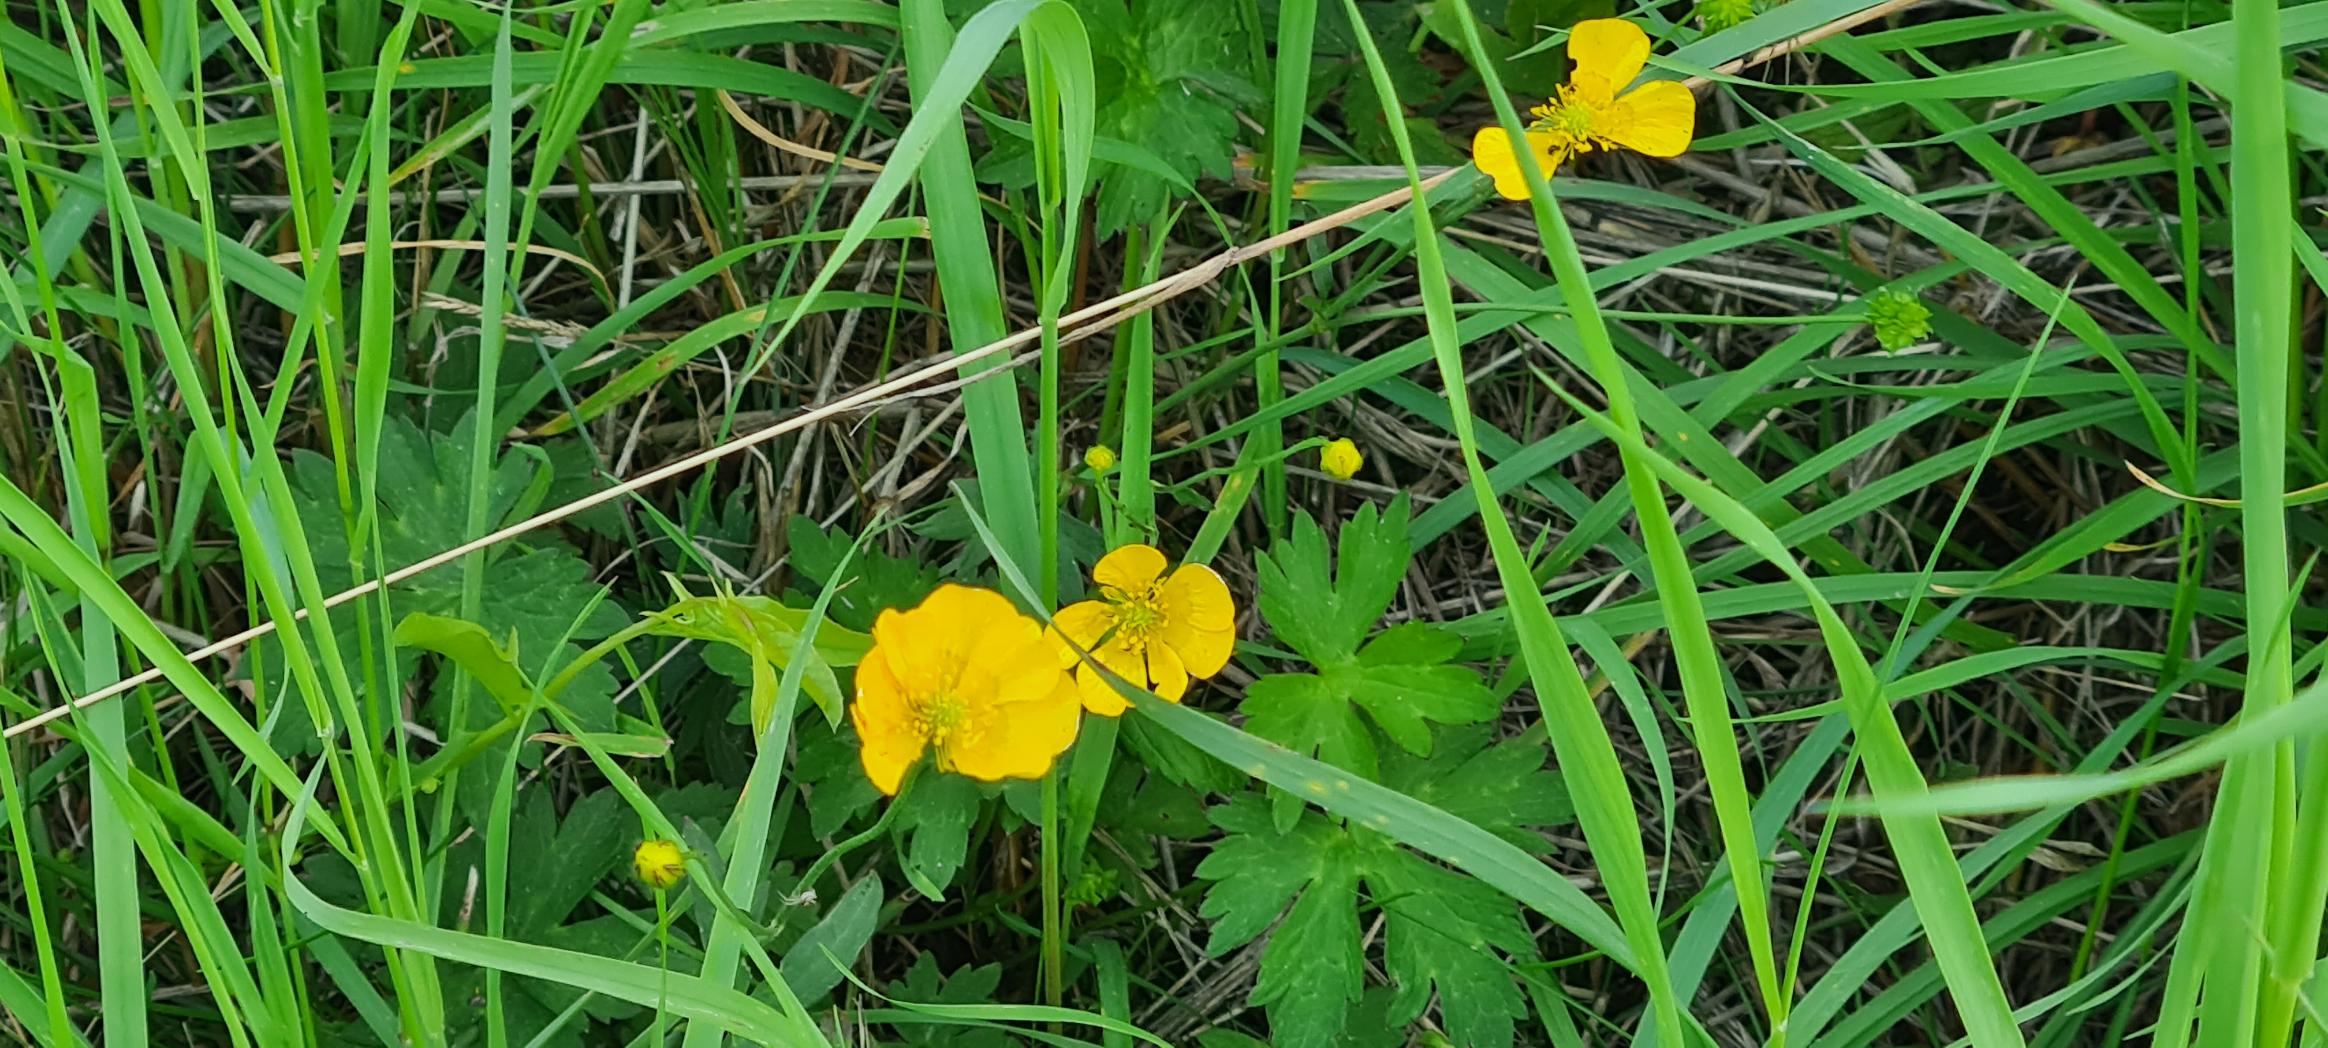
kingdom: Plantae
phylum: Tracheophyta
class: Magnoliopsida
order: Ranunculales
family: Ranunculaceae
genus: Ranunculus
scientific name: Ranunculus acris
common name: Bidende ranunkel
